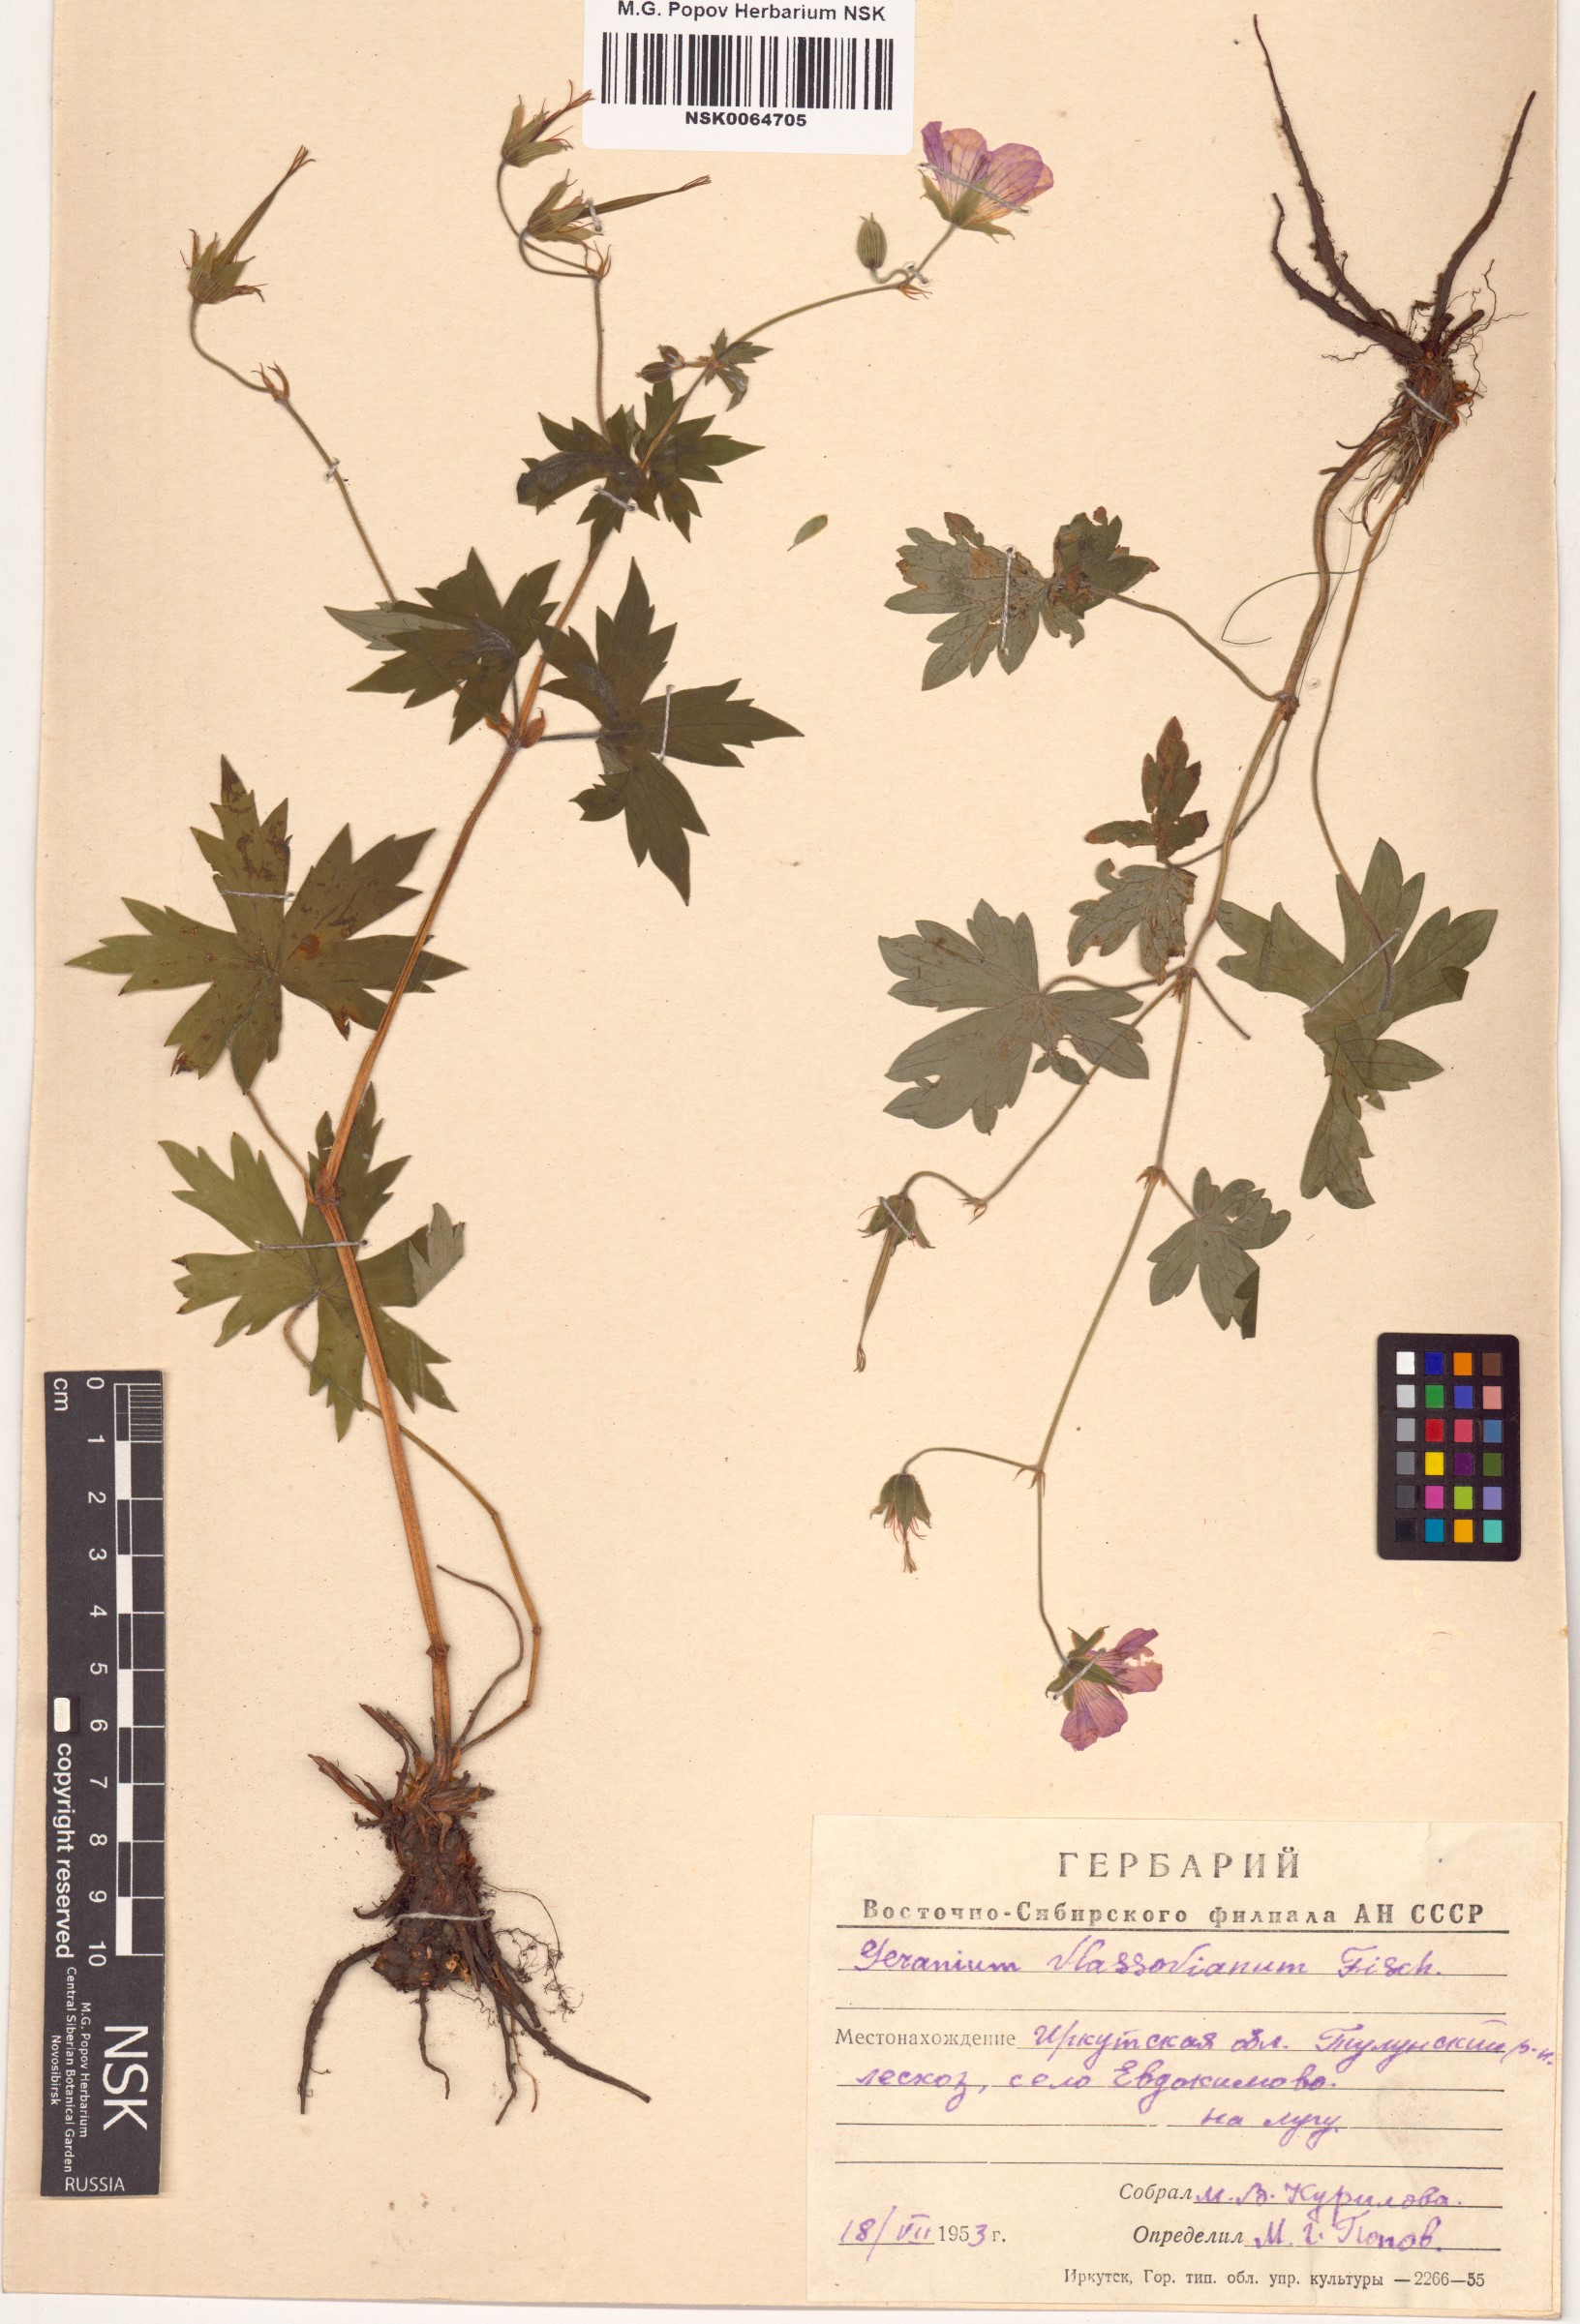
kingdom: Plantae
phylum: Tracheophyta
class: Magnoliopsida
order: Geraniales
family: Geraniaceae
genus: Geranium
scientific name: Geranium wlassovianum
